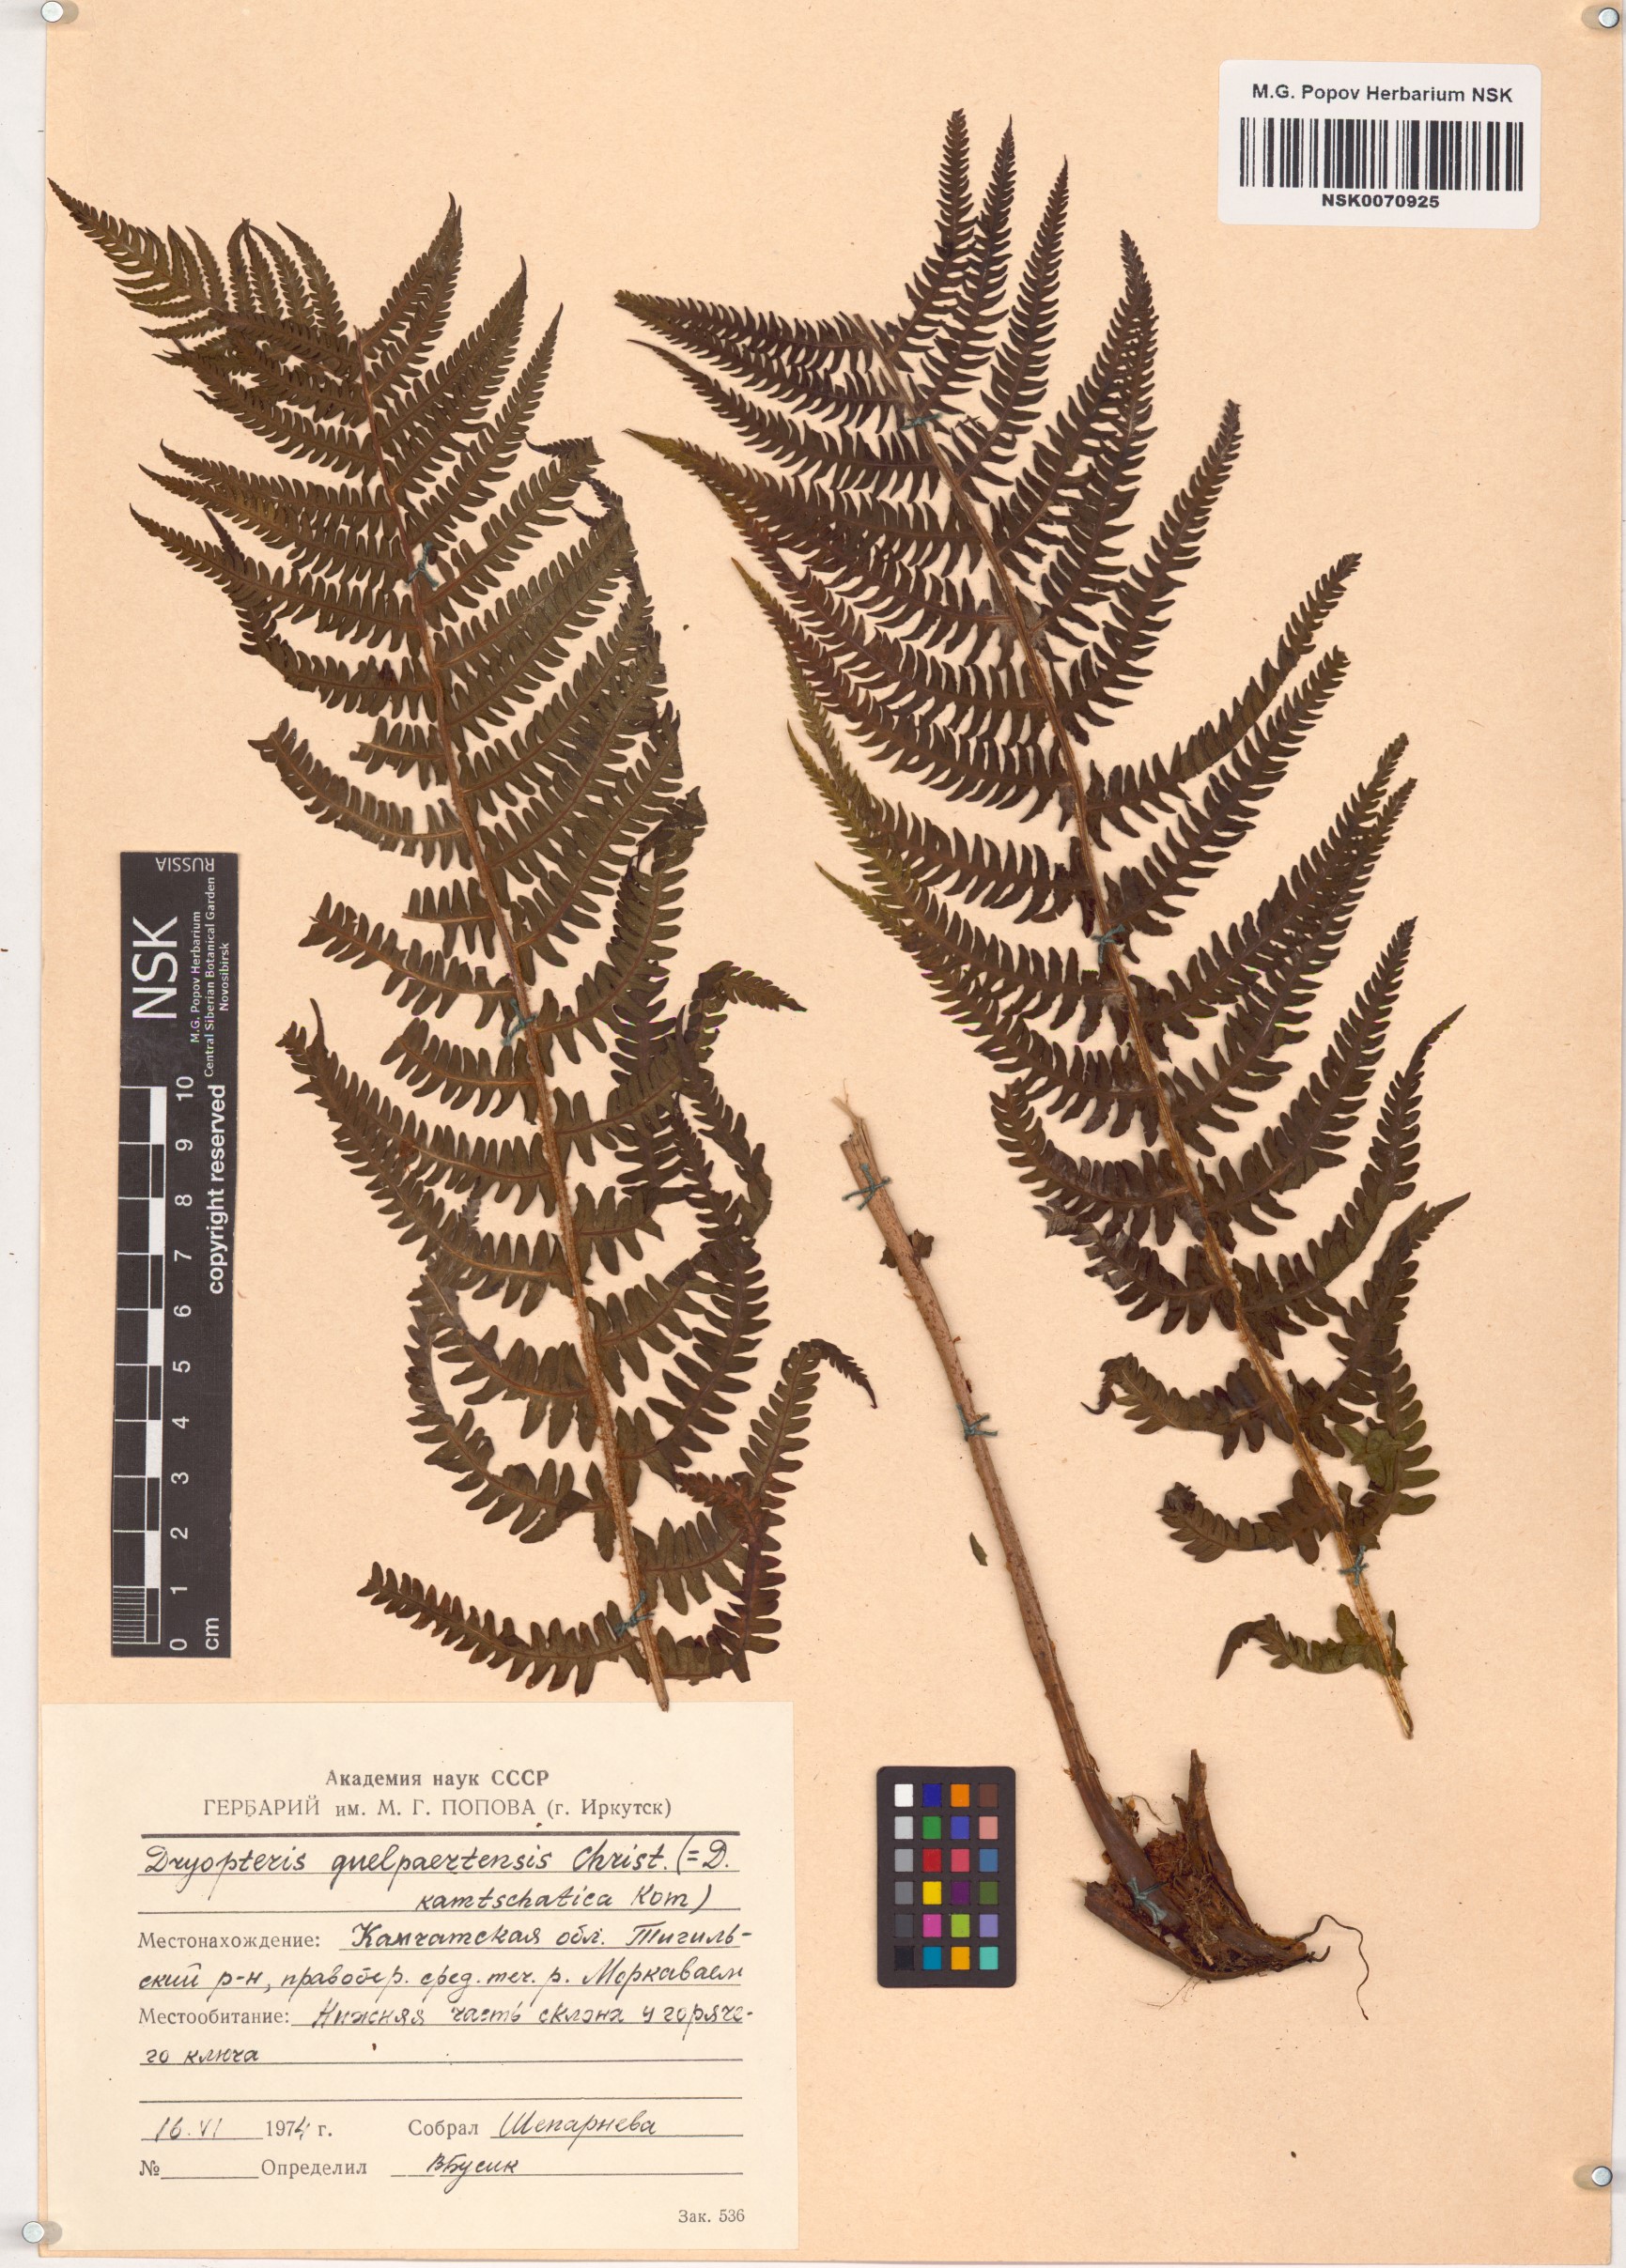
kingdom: Plantae
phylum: Tracheophyta
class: Polypodiopsida
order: Polypodiales
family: Thelypteridaceae
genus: Oreopteris
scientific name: Oreopteris quelpartensis
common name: Mountain fern
